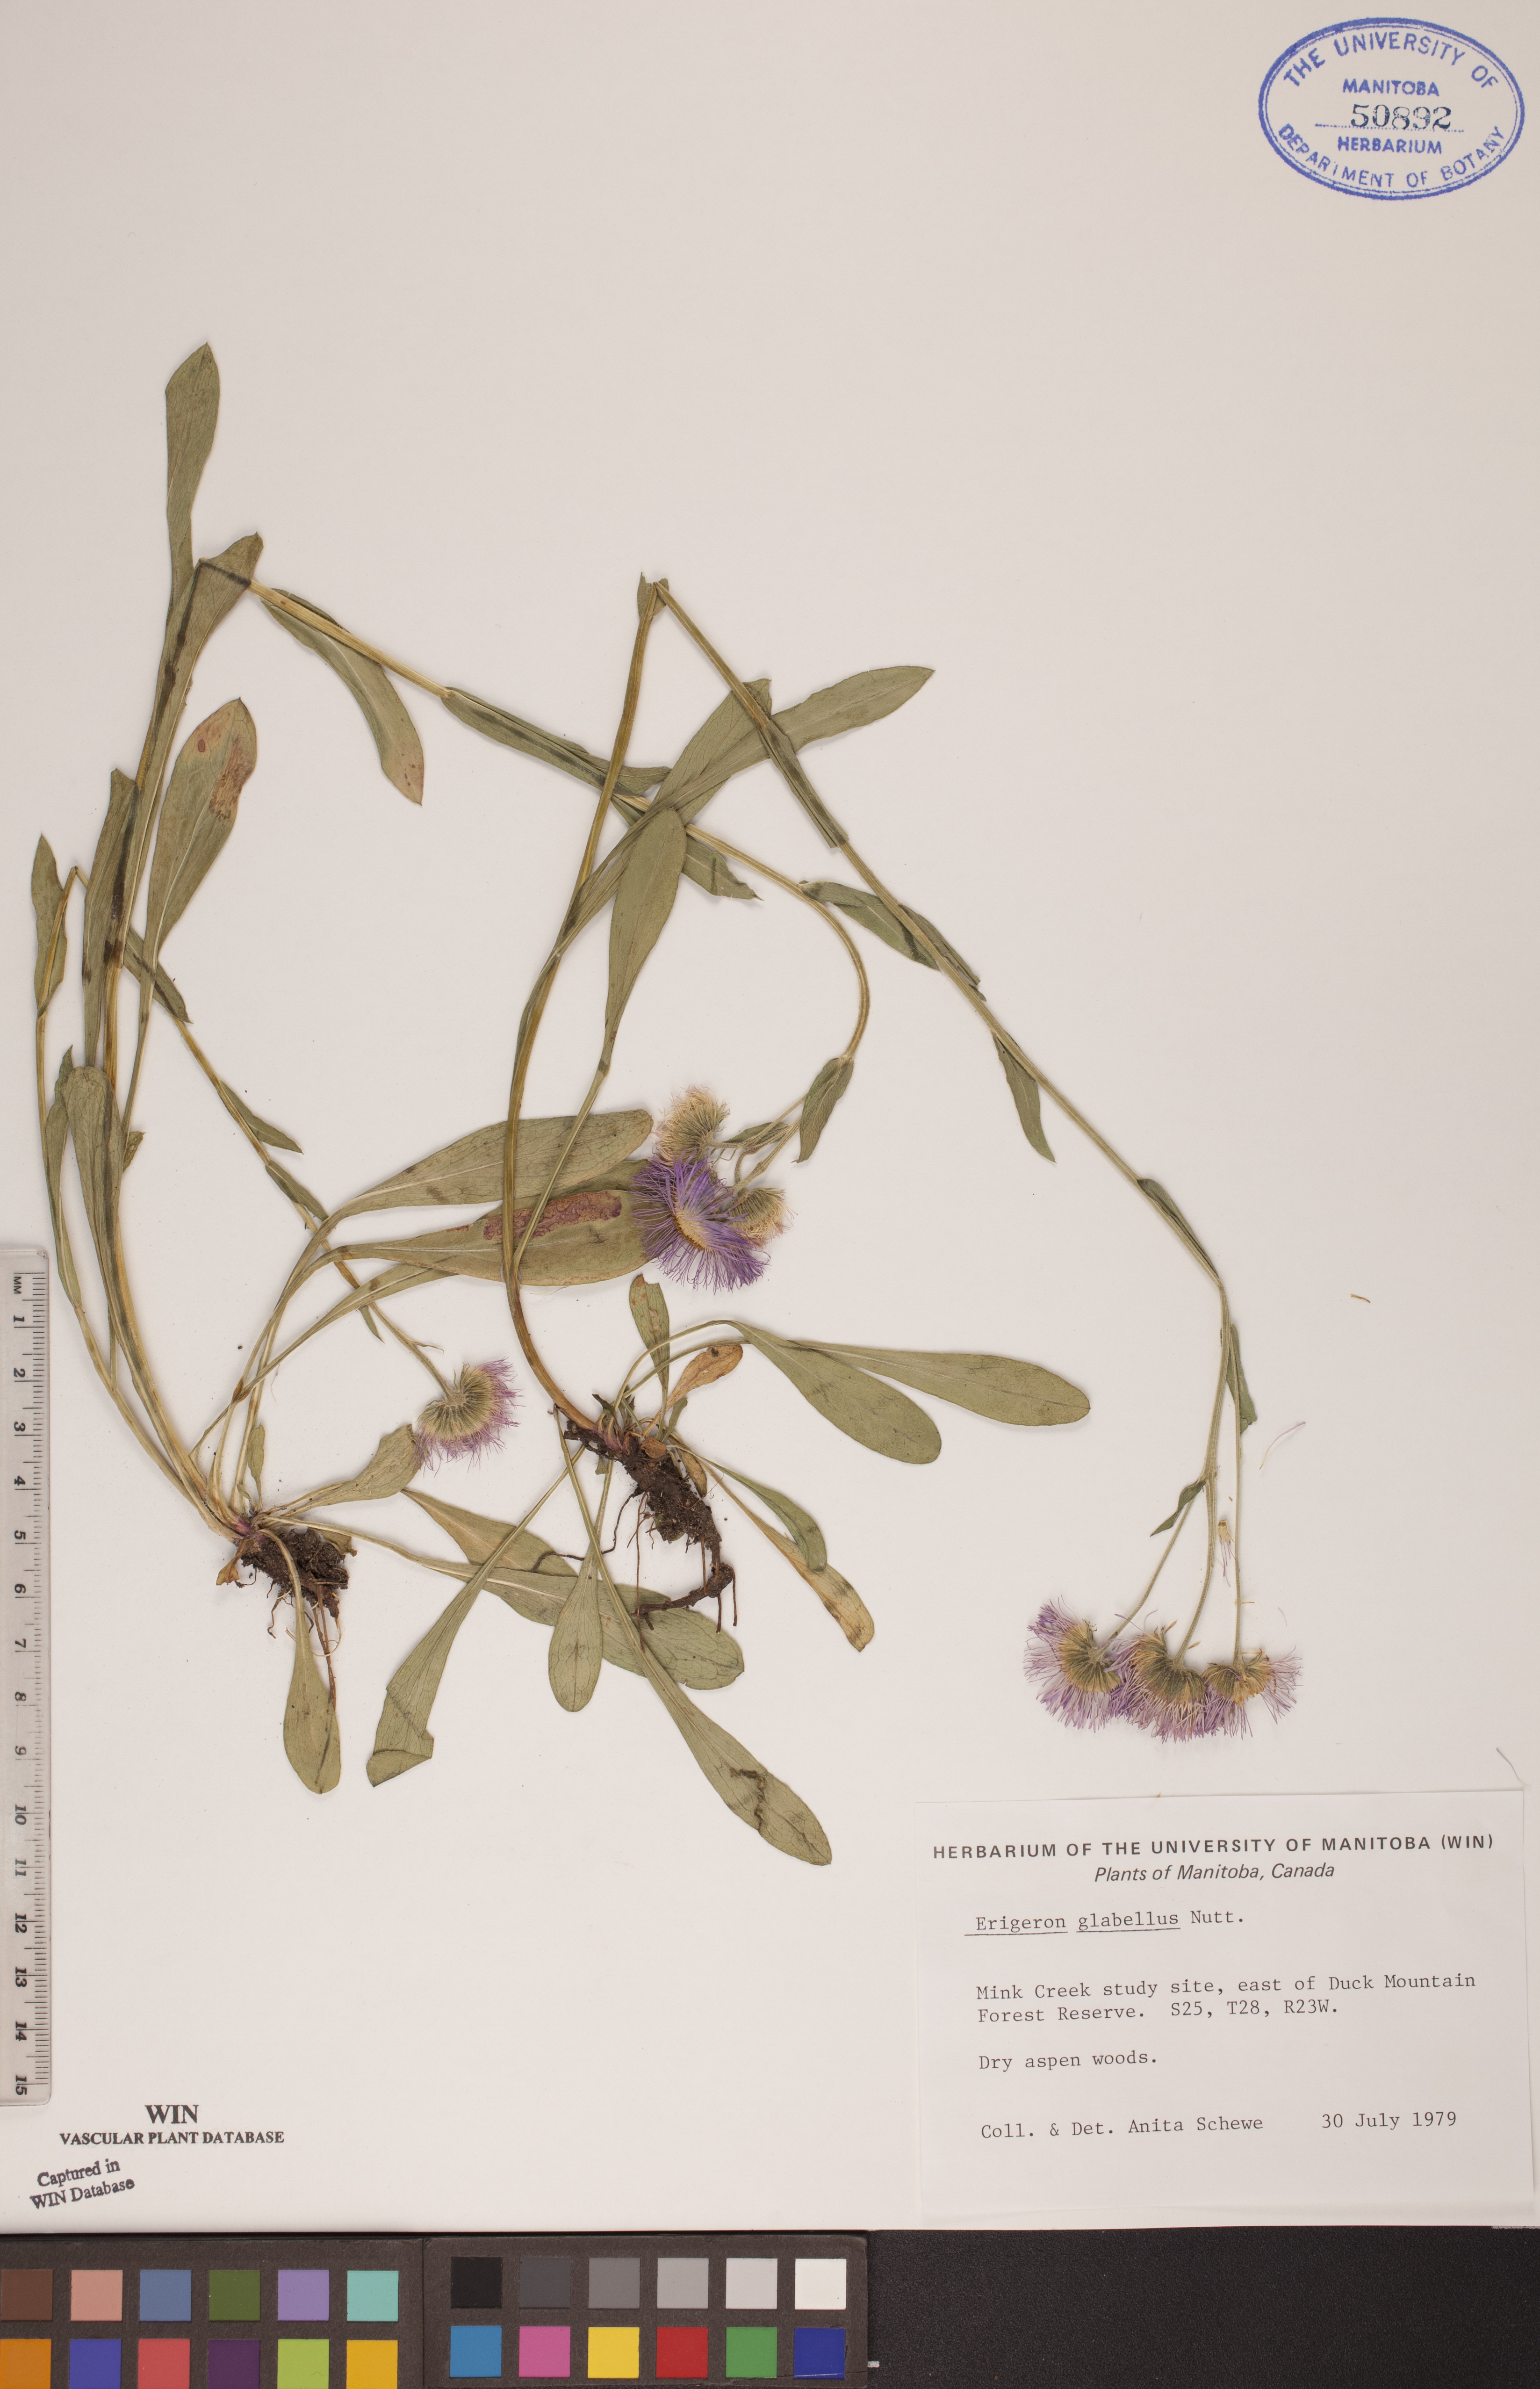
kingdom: Plantae
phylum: Tracheophyta
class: Magnoliopsida
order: Asterales
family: Asteraceae
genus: Erigeron
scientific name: Erigeron glabellus
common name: Smooth fleabane
